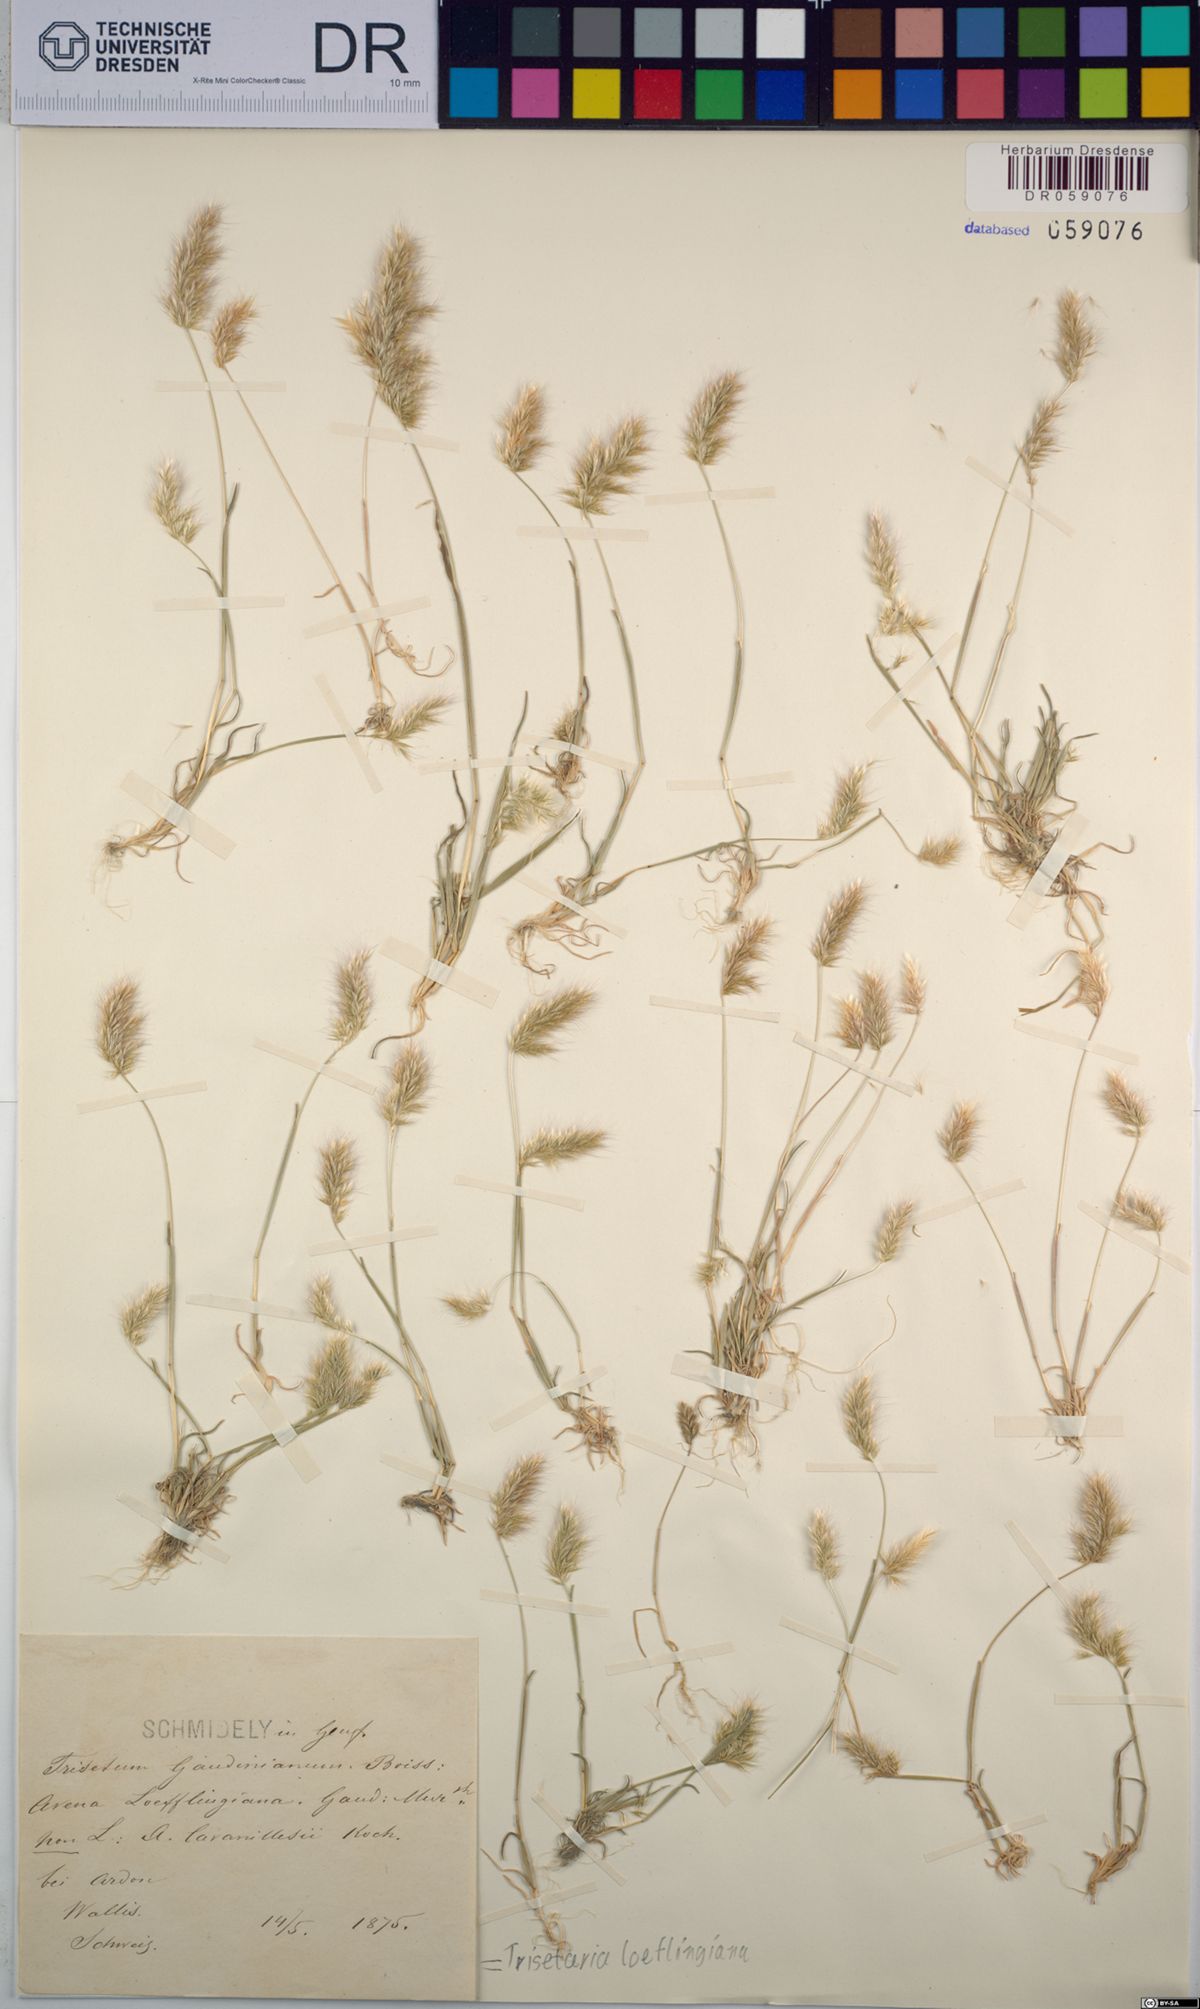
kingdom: Plantae
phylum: Tracheophyta
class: Liliopsida
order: Poales
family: Poaceae
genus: Trisetaria
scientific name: Trisetaria loeflingiana
